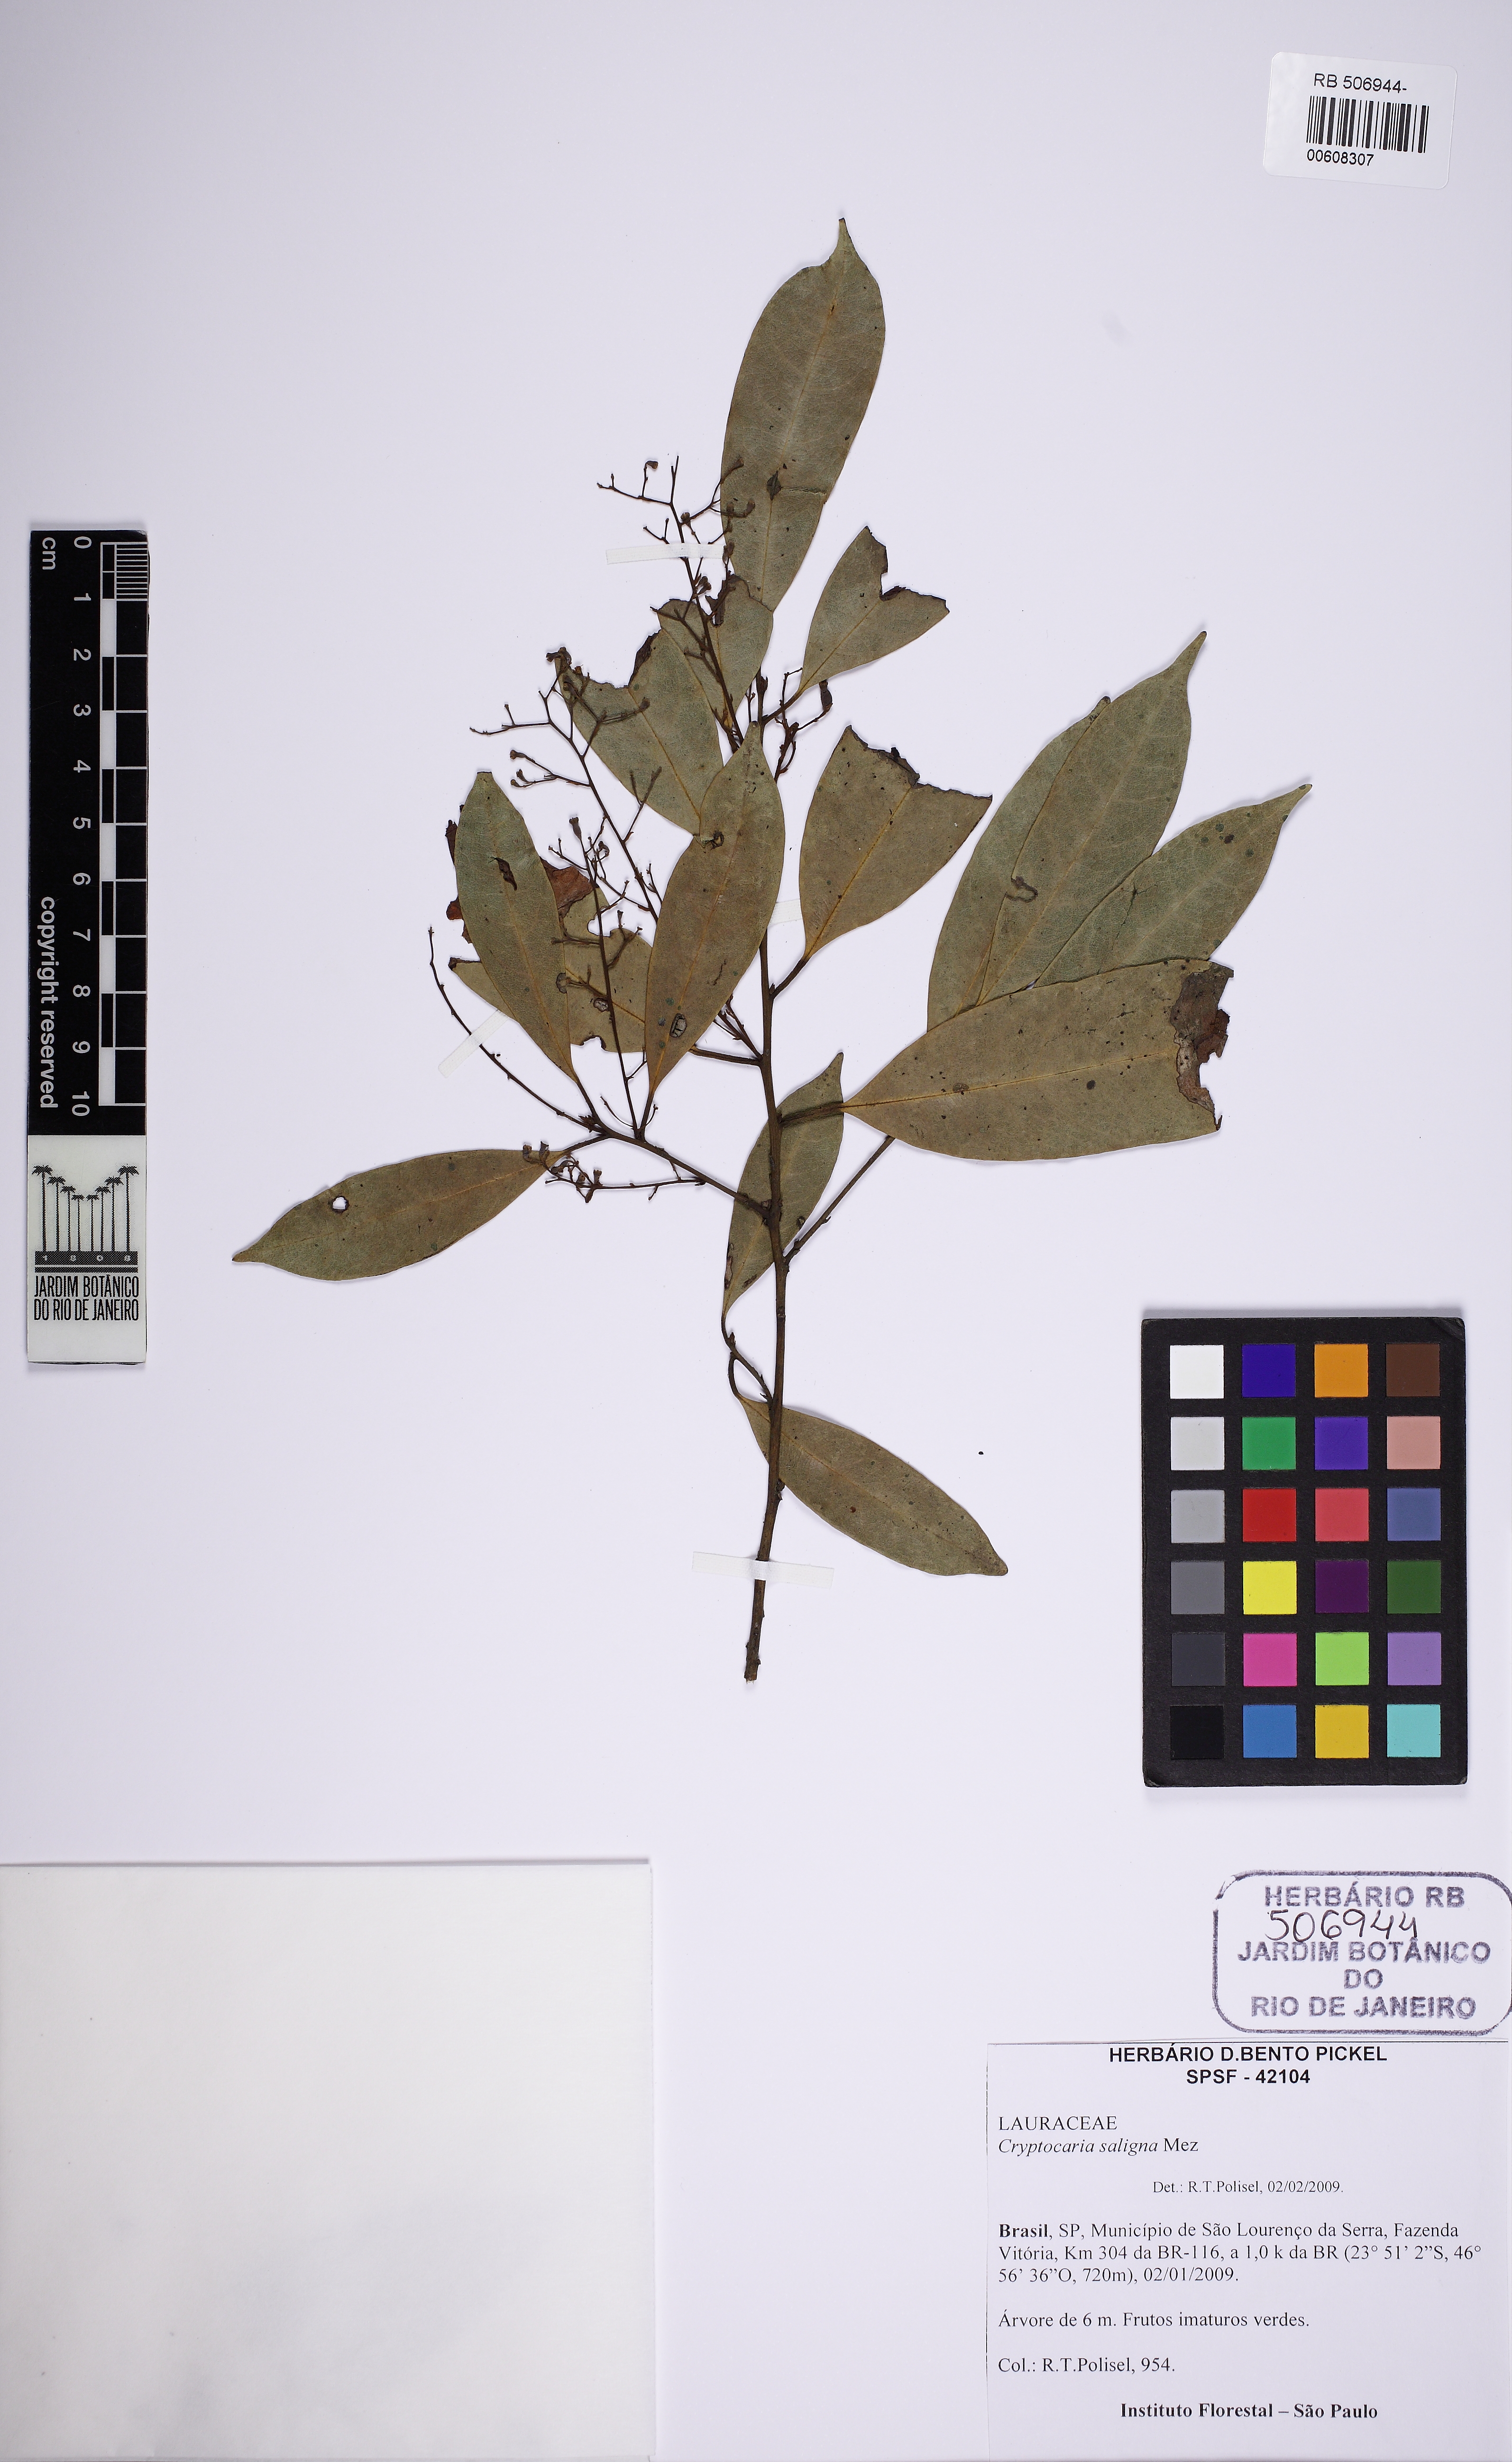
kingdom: Plantae
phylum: Tracheophyta
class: Magnoliopsida
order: Laurales
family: Lauraceae
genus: Cryptocarya
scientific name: Cryptocarya saligna
